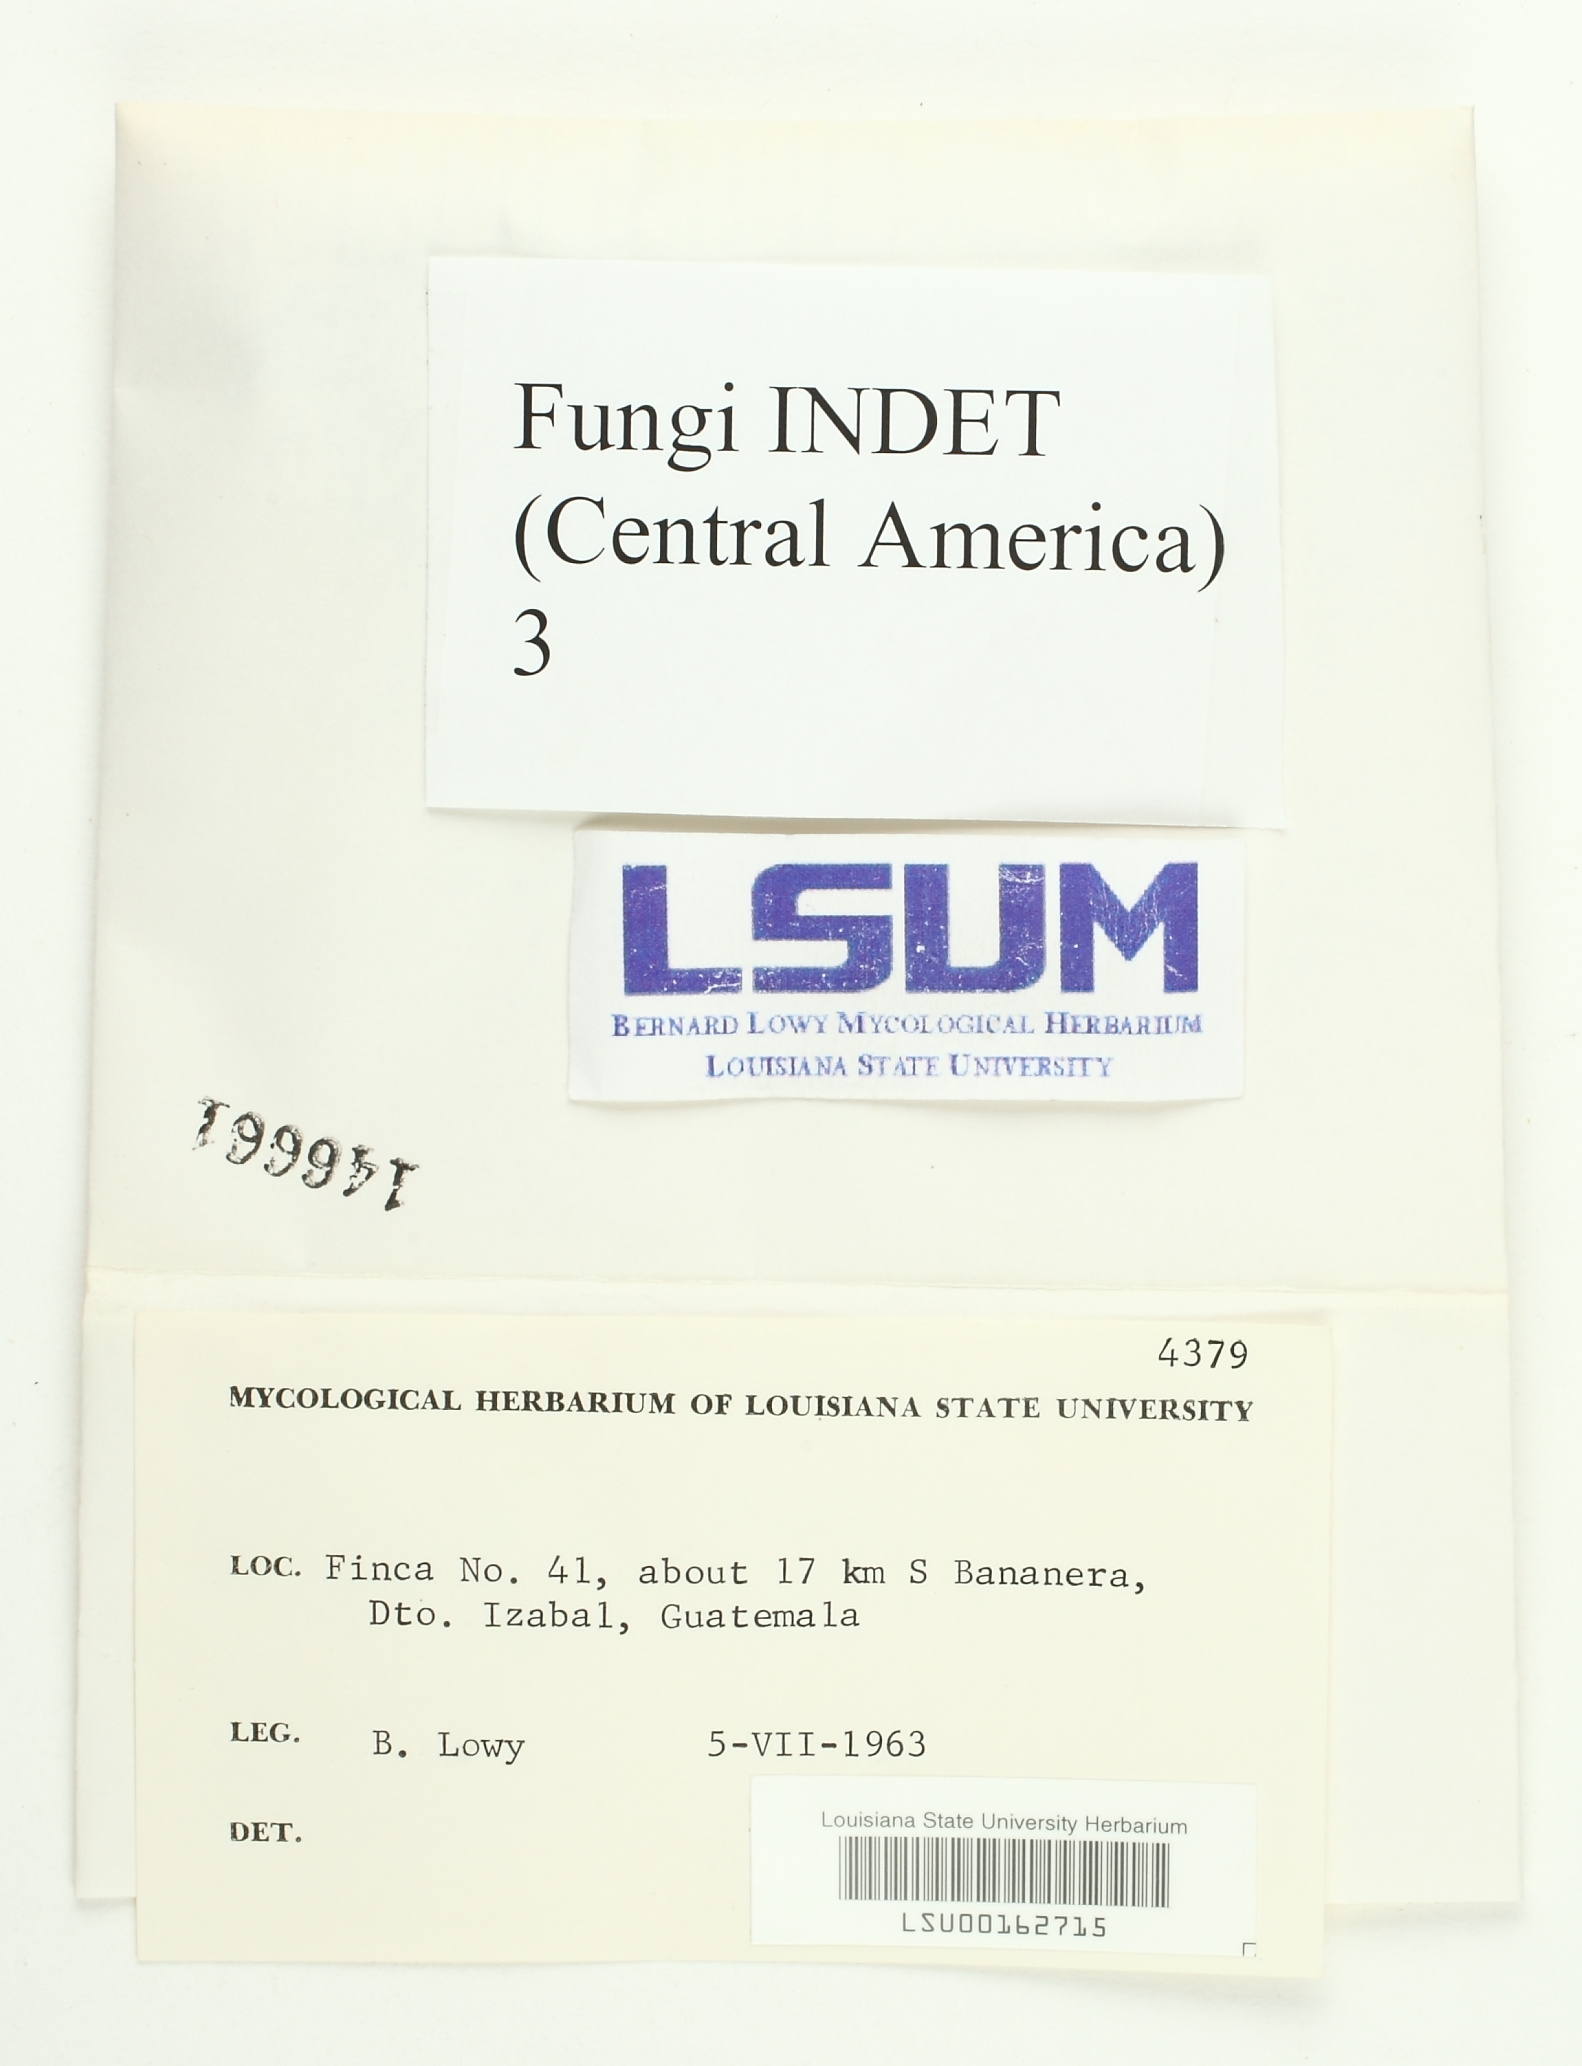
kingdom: Fungi
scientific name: Fungi
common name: Fungi
